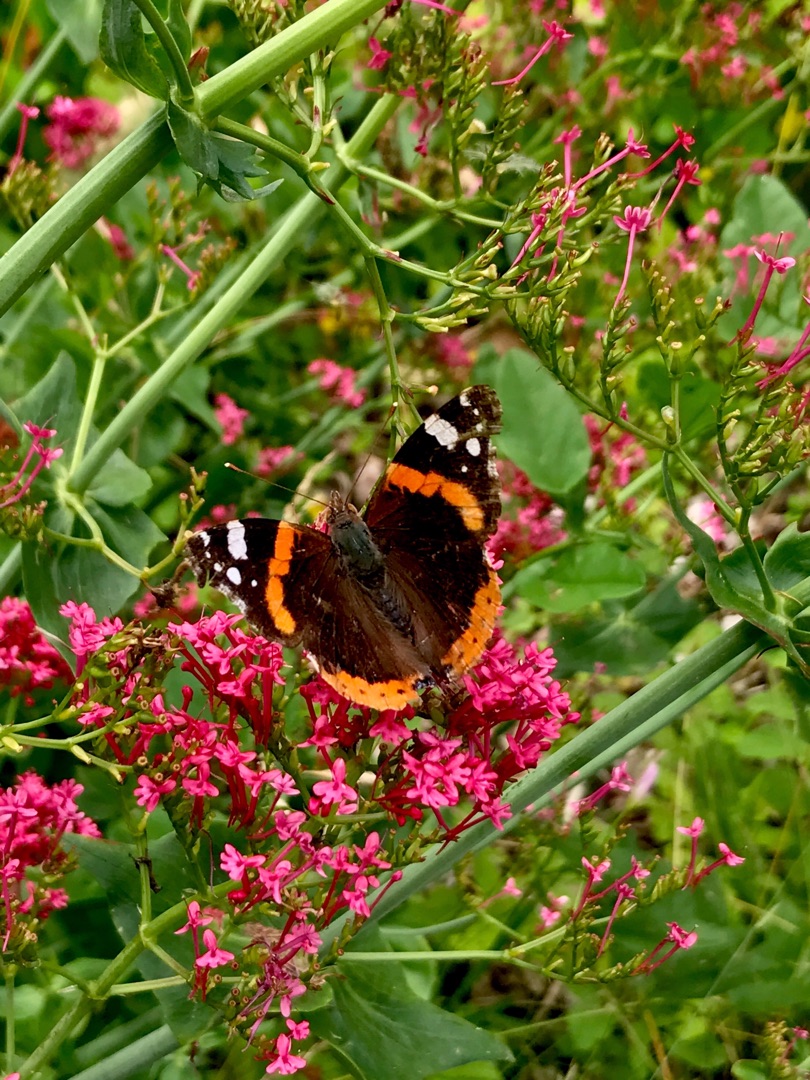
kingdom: Animalia
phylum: Arthropoda
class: Insecta
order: Lepidoptera
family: Nymphalidae
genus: Vanessa
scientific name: Vanessa atalanta
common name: Admiral
